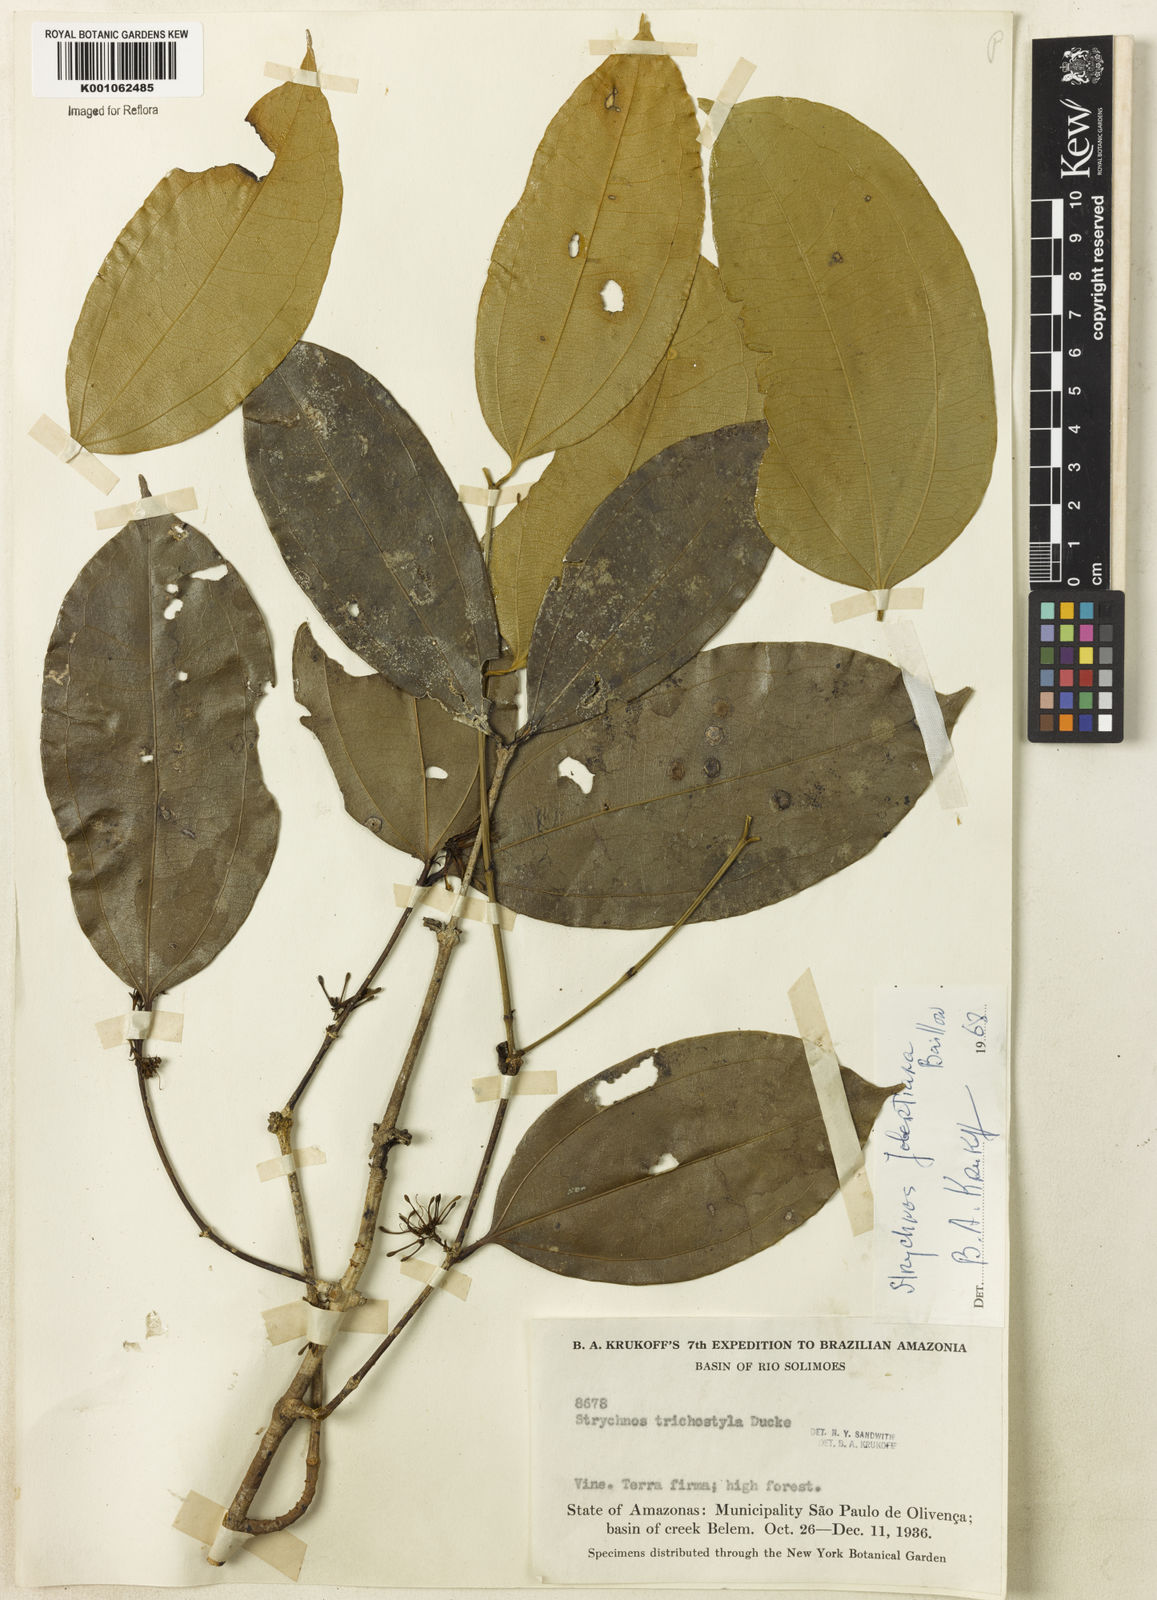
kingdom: Plantae
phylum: Tracheophyta
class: Magnoliopsida
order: Gentianales
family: Loganiaceae
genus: Strychnos
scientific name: Strychnos jobertiana
